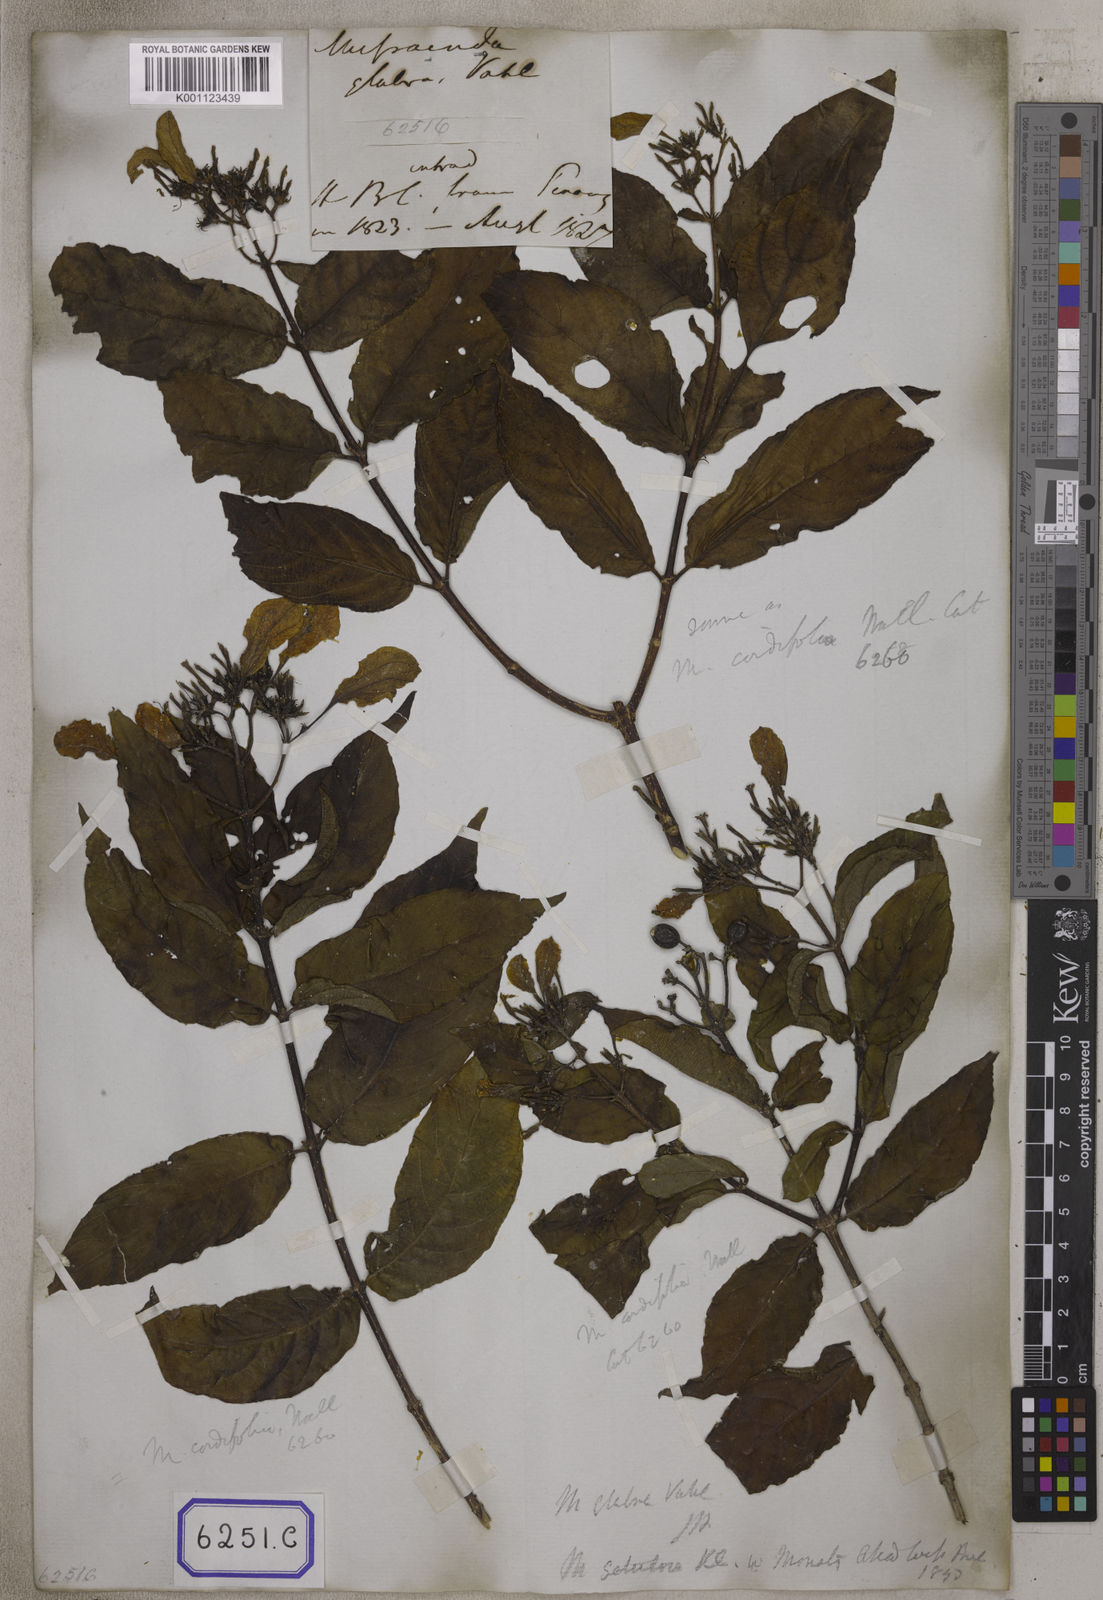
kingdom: Plantae
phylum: Tracheophyta
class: Magnoliopsida
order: Gentianales
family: Rubiaceae
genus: Mussaenda
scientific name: Mussaenda
